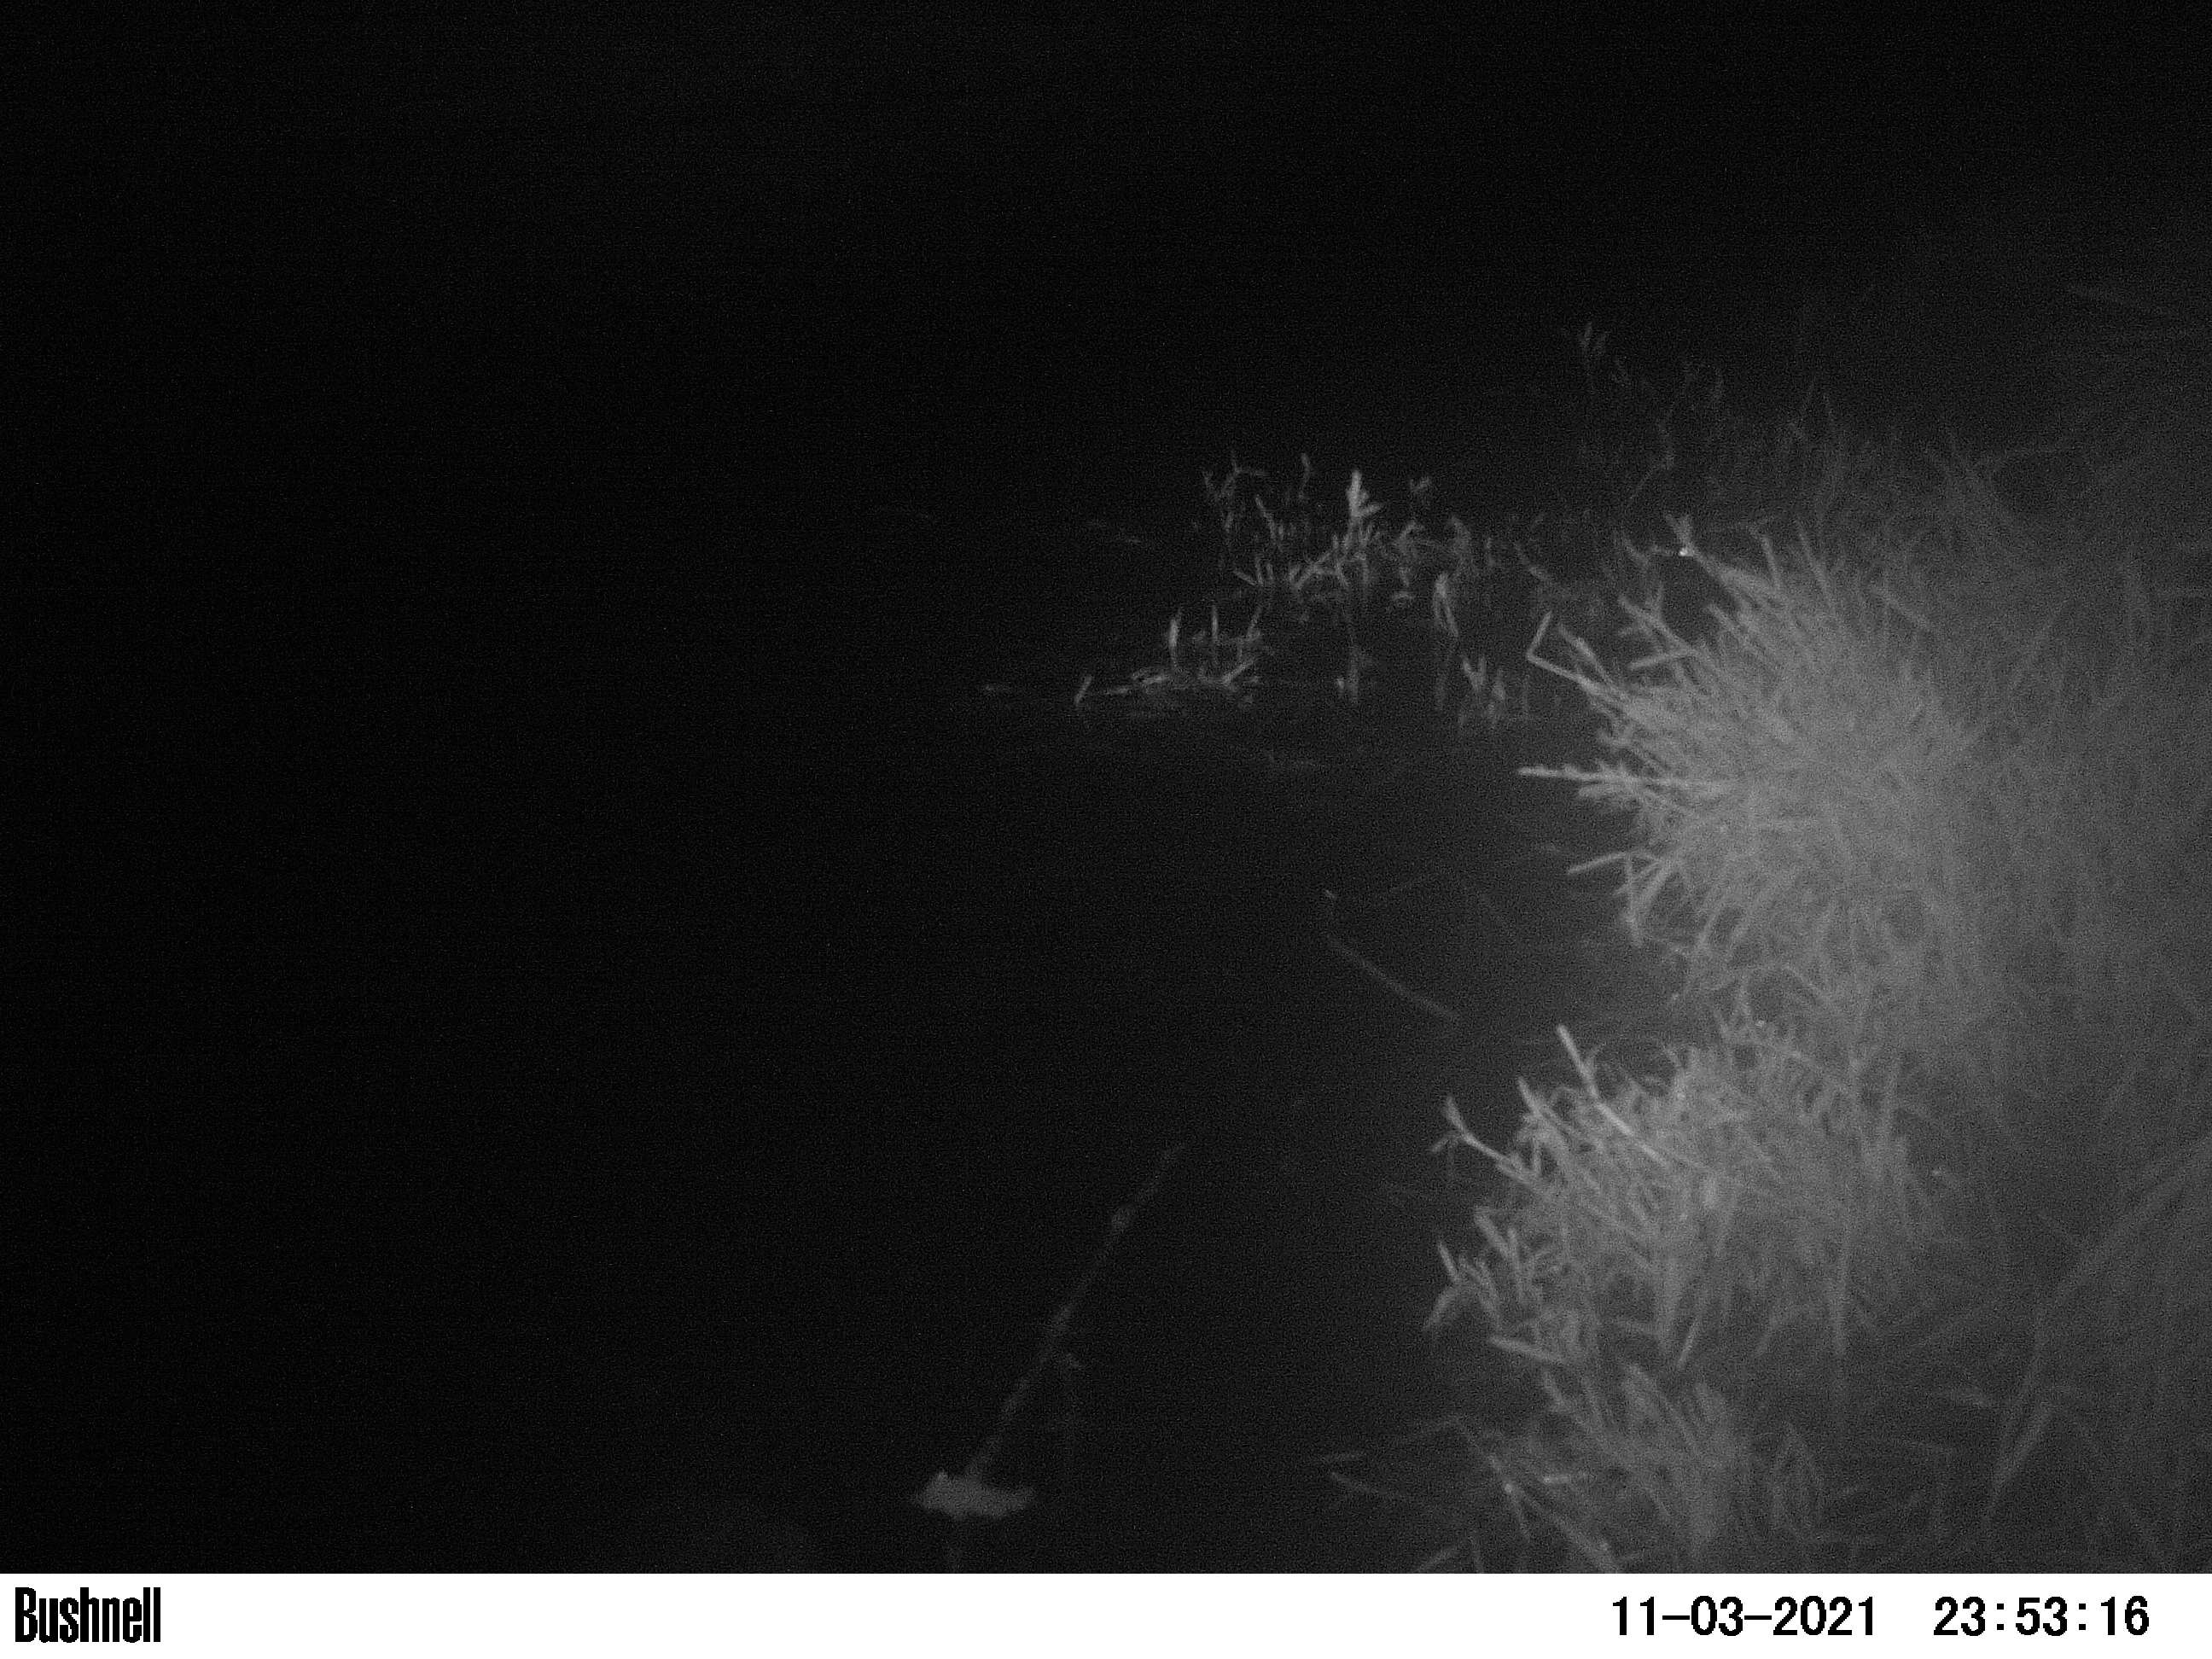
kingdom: Animalia
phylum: Chordata
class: Mammalia
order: Rodentia
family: Cricetidae
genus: Ondatra
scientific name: Ondatra zibethicus
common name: Muskrat
